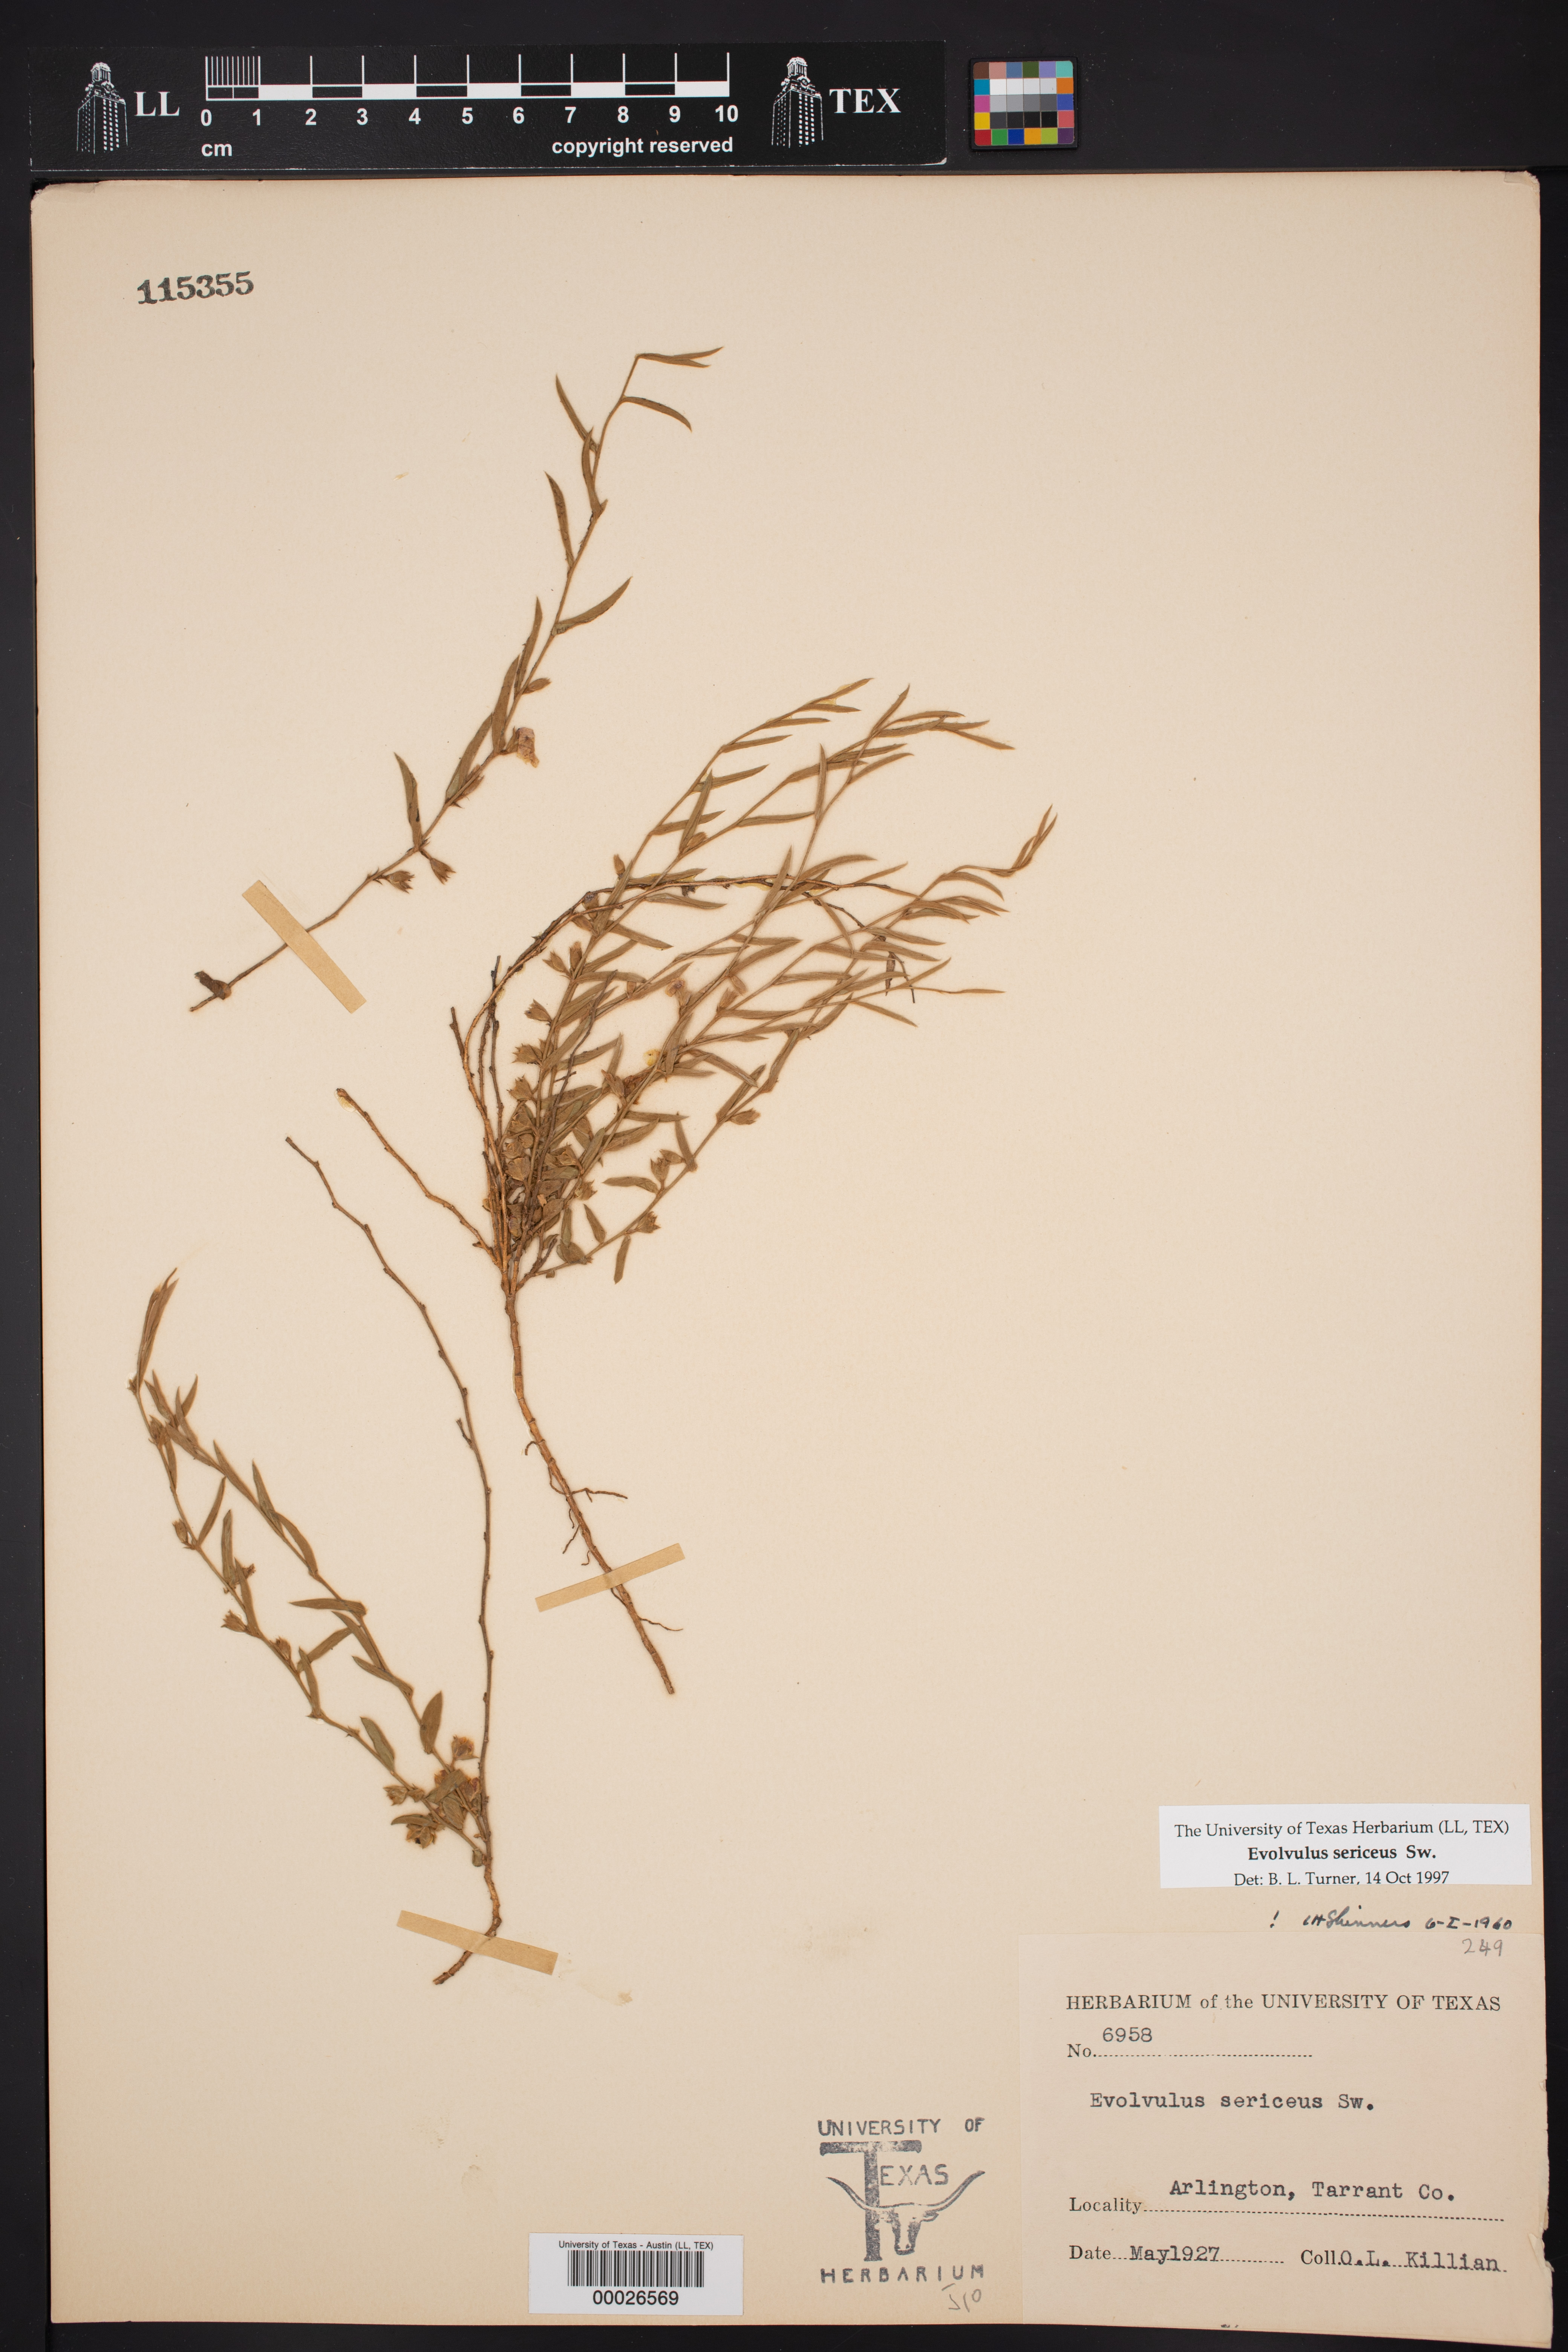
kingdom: Plantae
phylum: Tracheophyta
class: Magnoliopsida
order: Solanales
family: Convolvulaceae
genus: Evolvulus
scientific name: Evolvulus sericeus
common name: Blue dots
